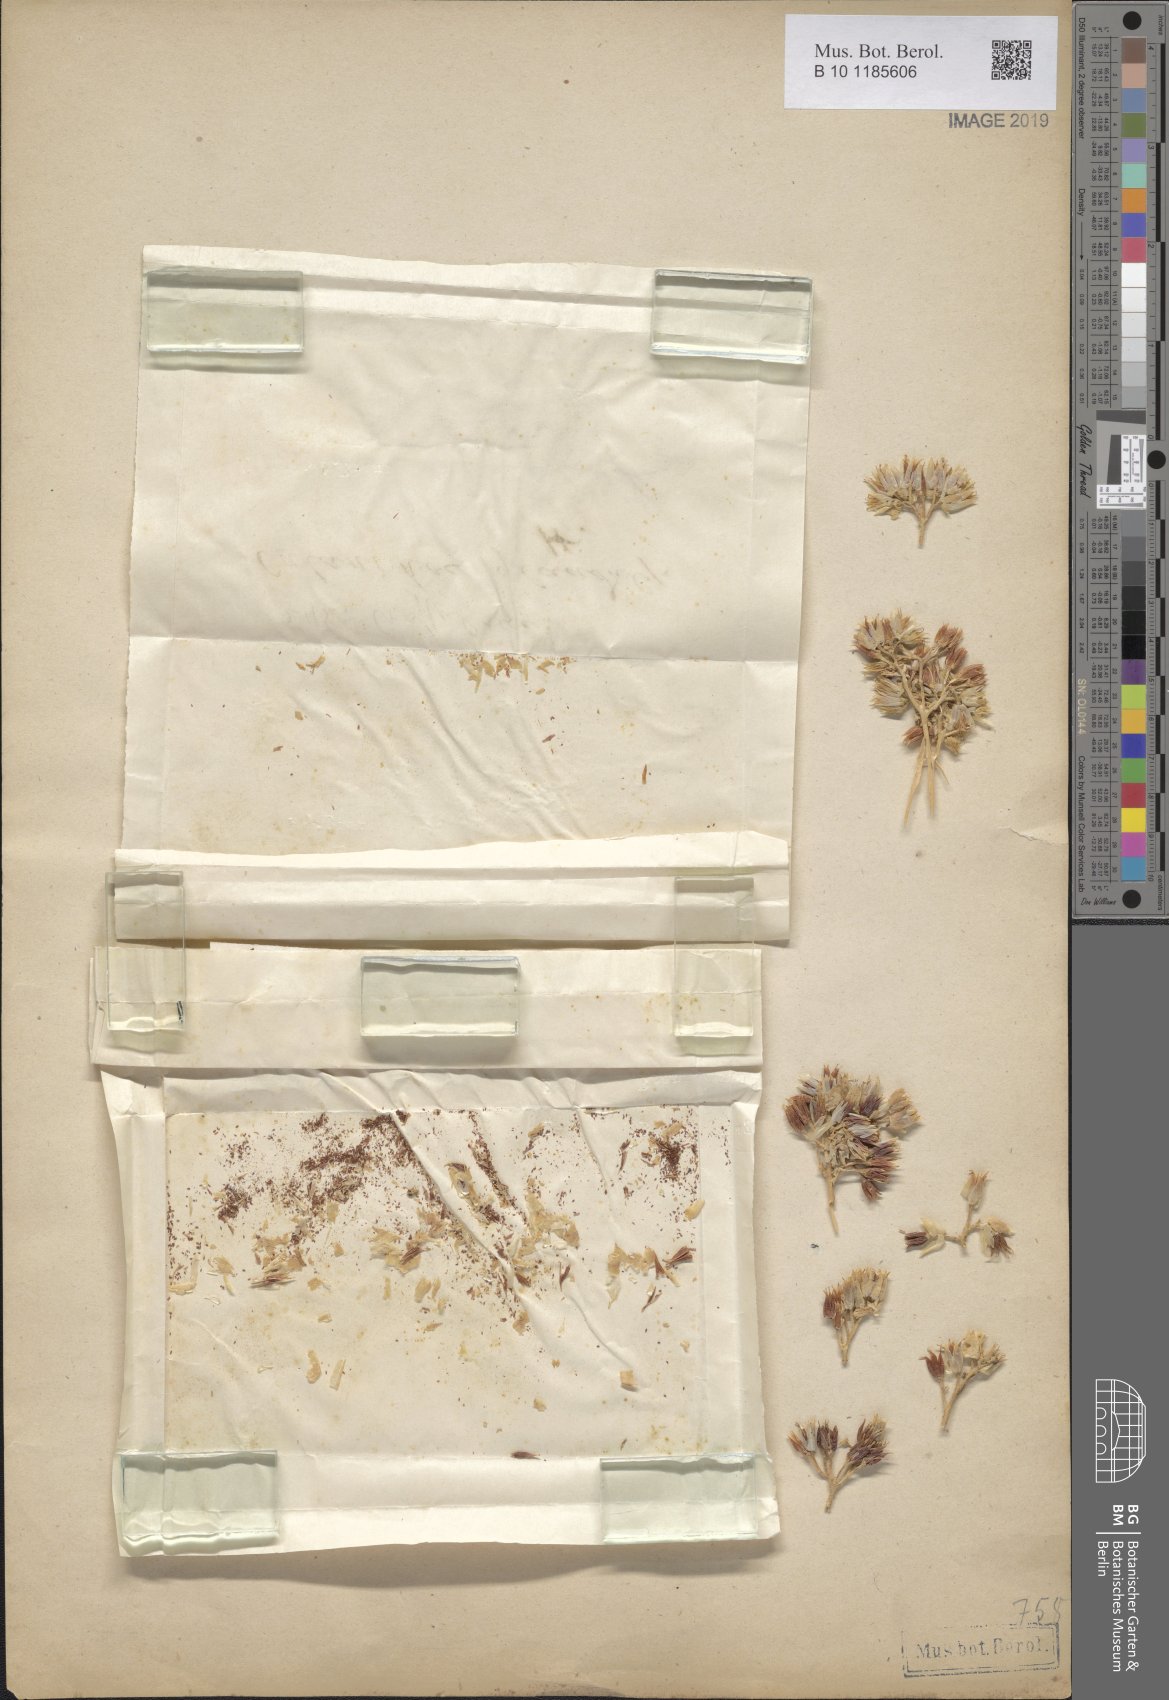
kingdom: Plantae
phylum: Tracheophyta
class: Magnoliopsida
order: Saxifragales
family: Crassulaceae
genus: Kalanchoe
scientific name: Kalanchoe lanceolata
